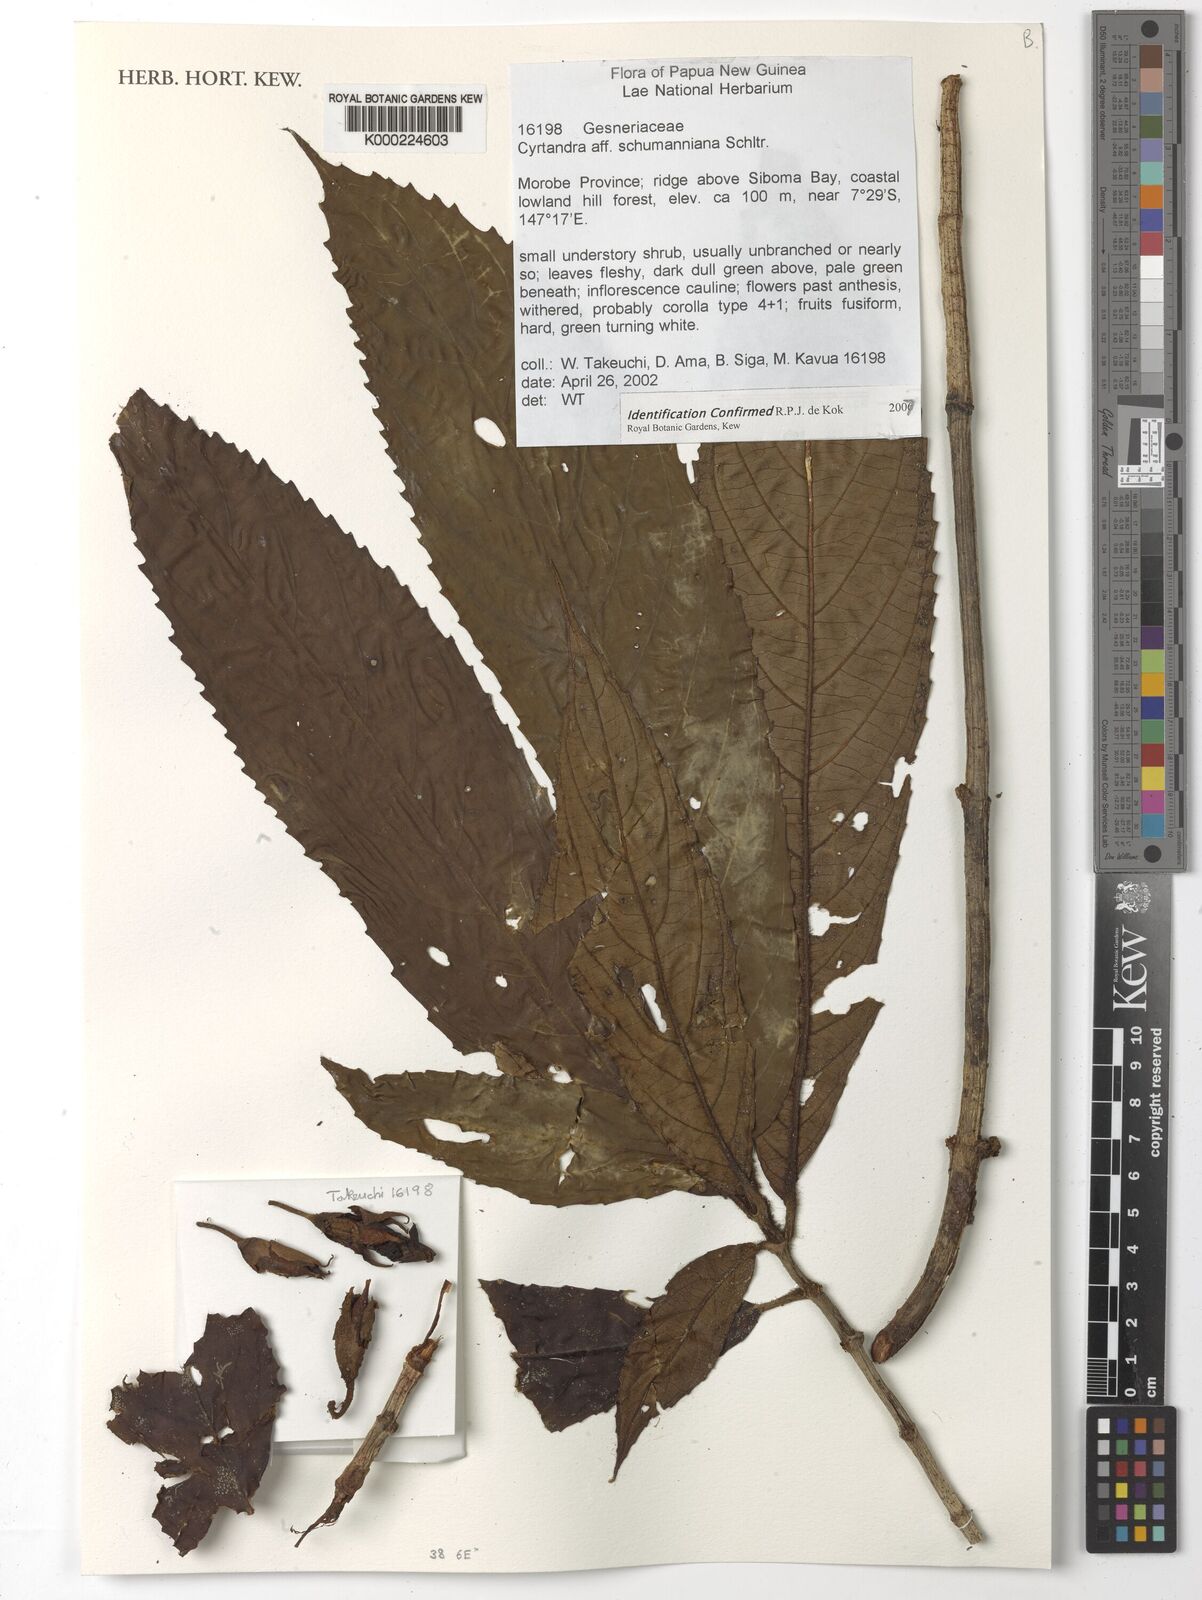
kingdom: Plantae
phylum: Tracheophyta
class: Magnoliopsida
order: Lamiales
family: Gesneriaceae
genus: Cyrtandra
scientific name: Cyrtandra
